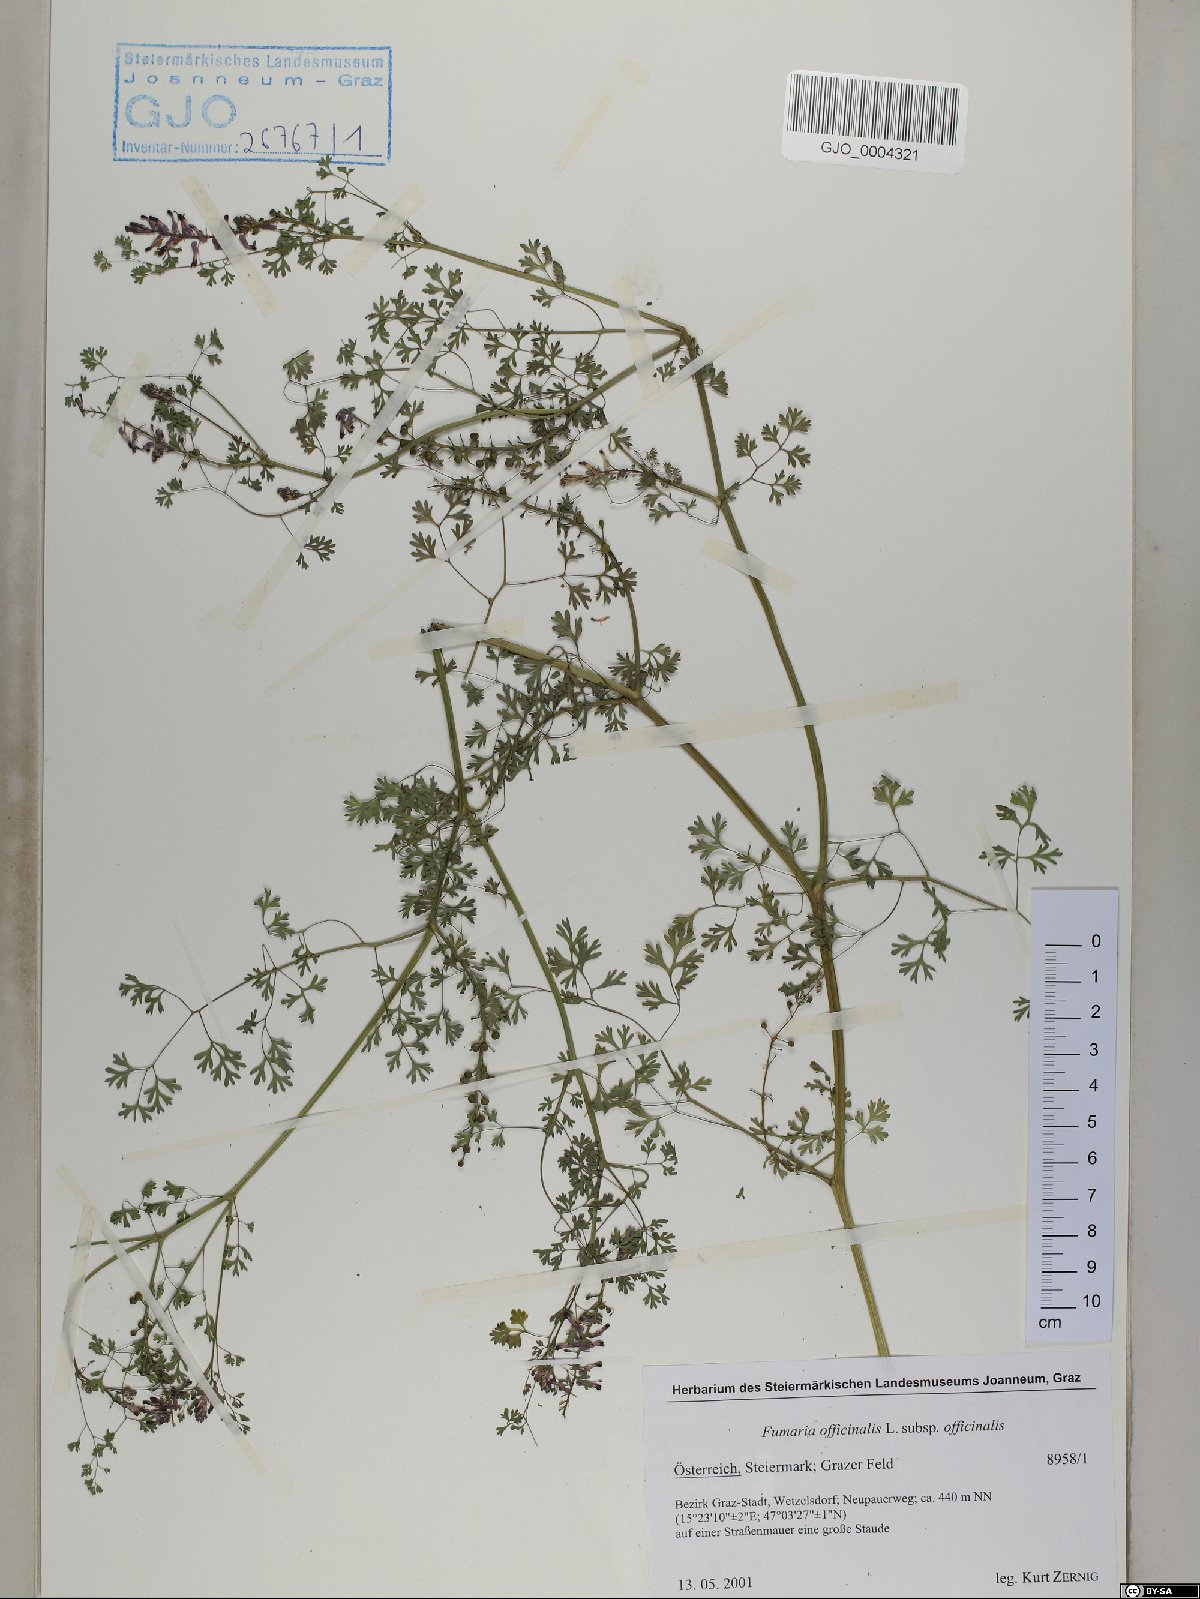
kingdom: Plantae
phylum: Tracheophyta
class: Magnoliopsida
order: Ranunculales
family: Papaveraceae
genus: Fumaria
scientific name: Fumaria officinalis
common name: Common fumitory
